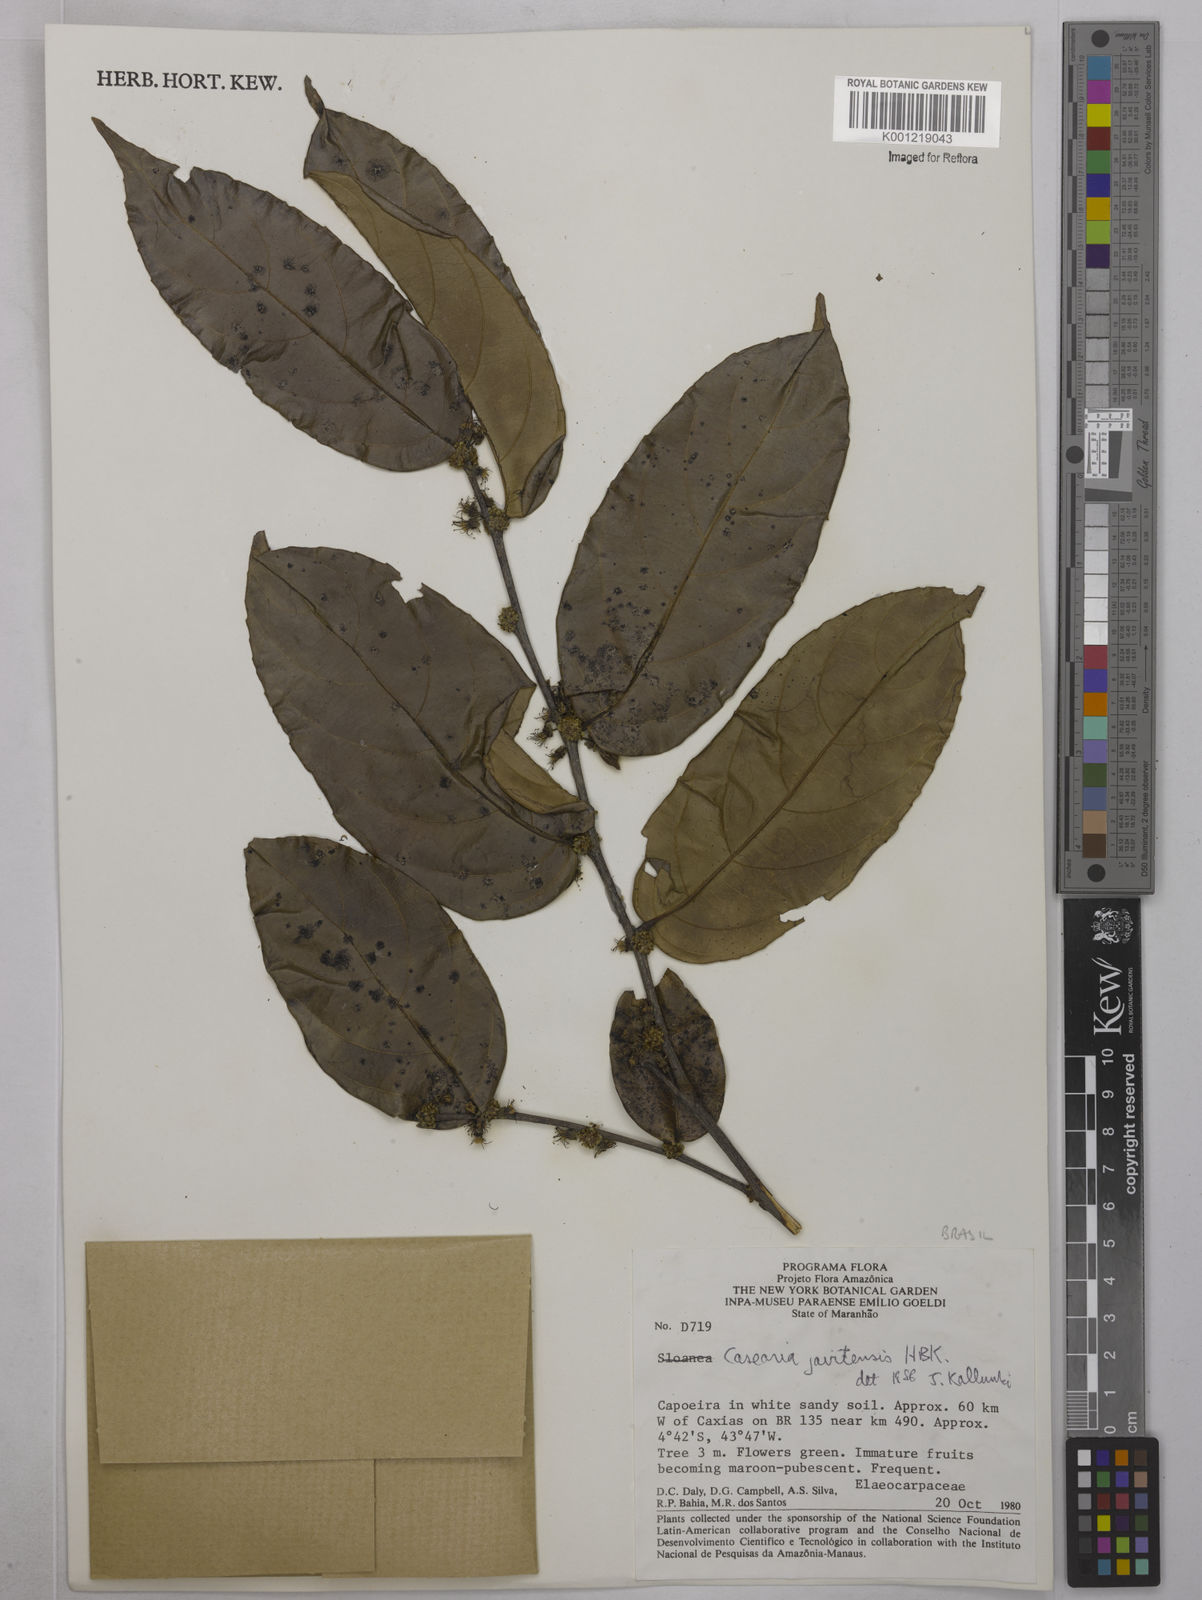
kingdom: Plantae
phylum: Tracheophyta
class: Magnoliopsida
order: Malpighiales
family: Salicaceae
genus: Piparea
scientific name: Piparea multiflora
